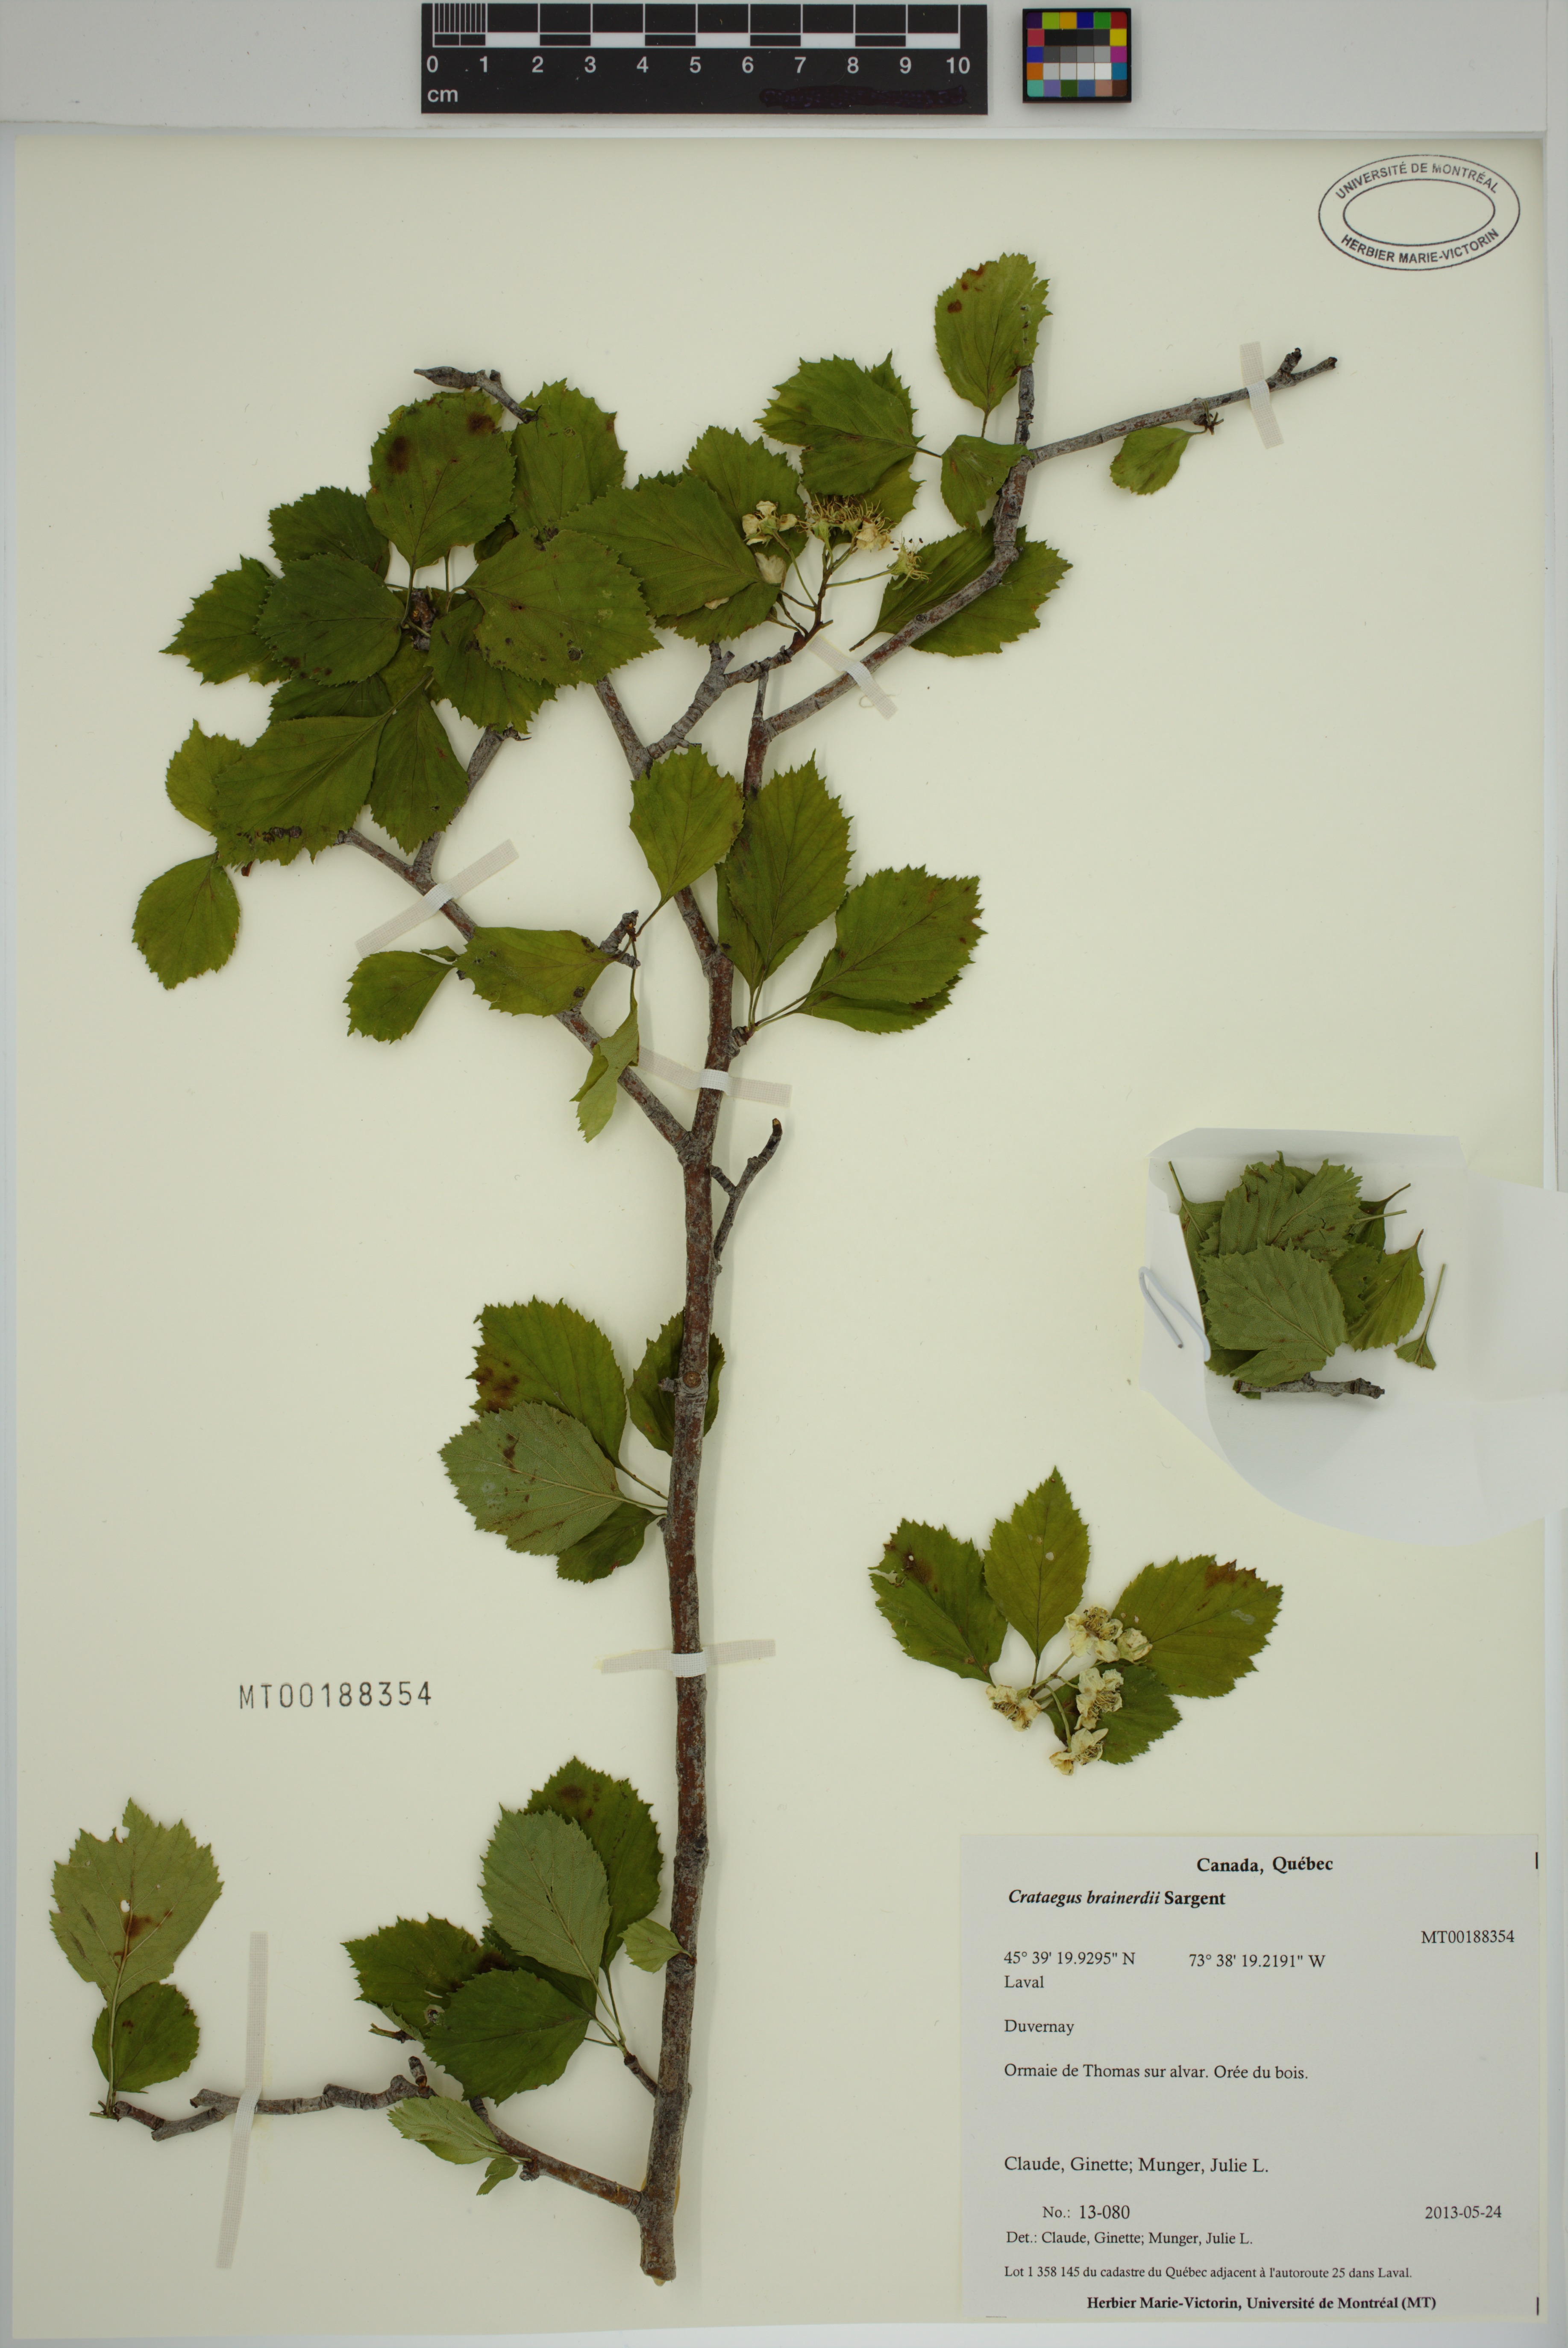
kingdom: Plantae
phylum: Tracheophyta
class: Magnoliopsida
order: Rosales
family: Rosaceae
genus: Crataegus
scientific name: Crataegus suborbiculata
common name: Caughnawaga hawthorn
